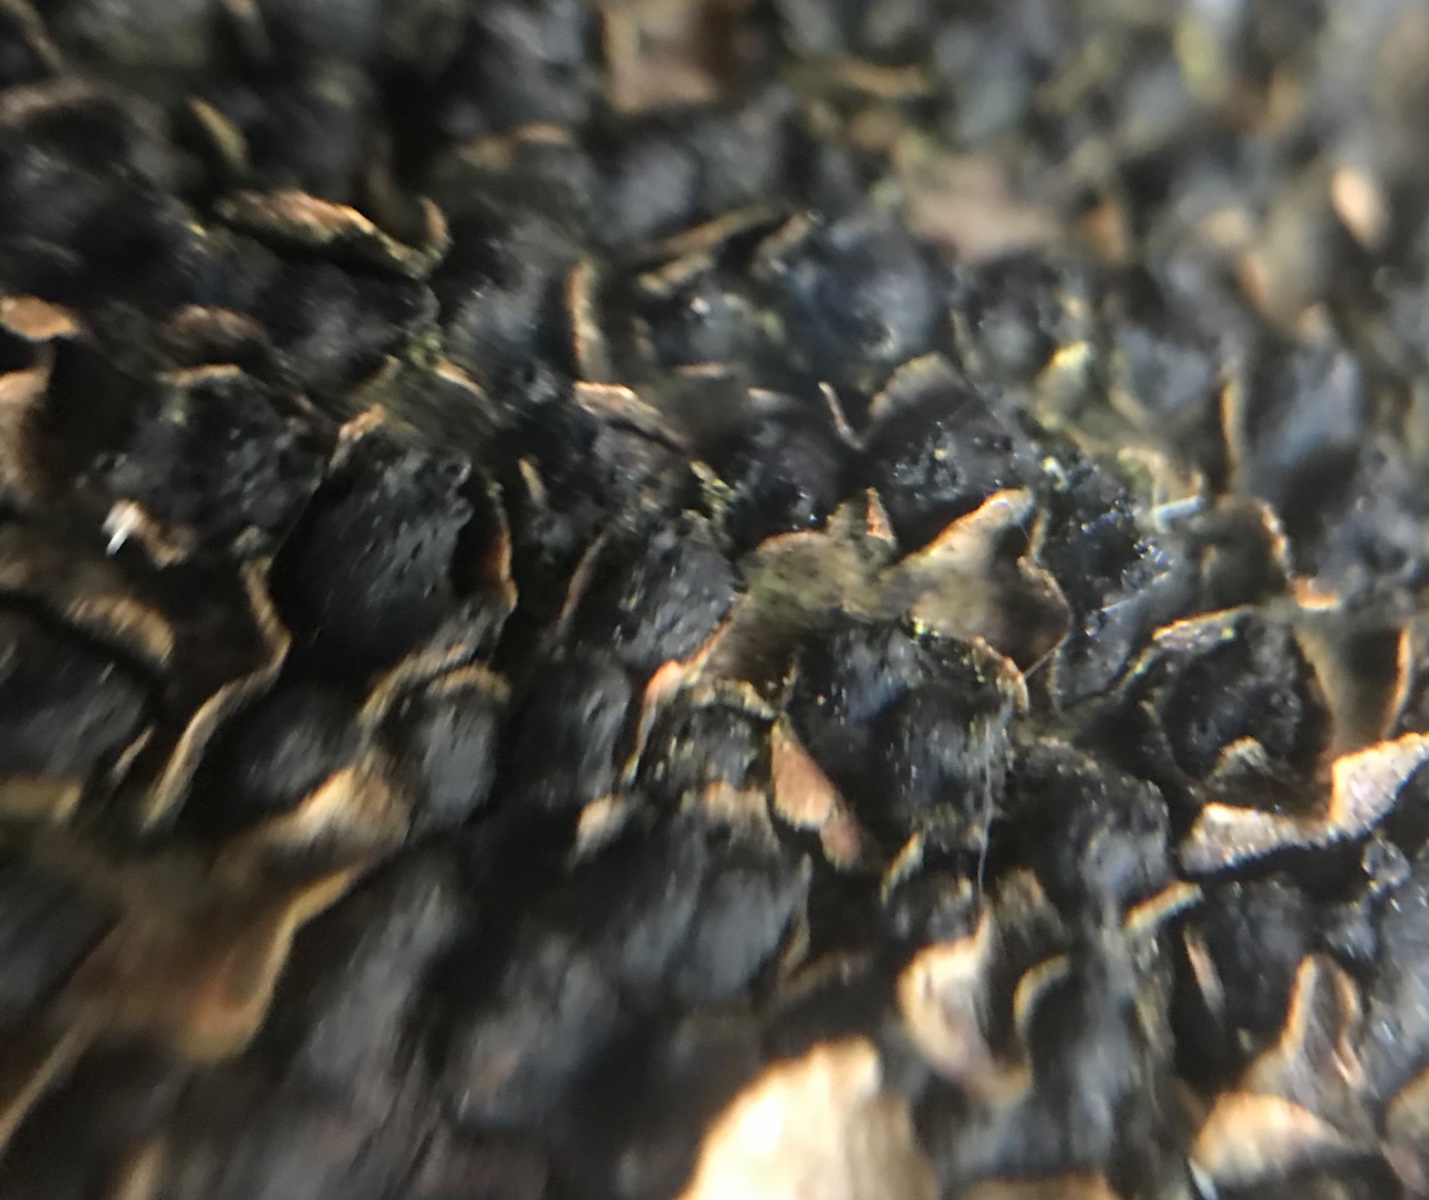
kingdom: Fungi
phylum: Ascomycota
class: Sordariomycetes
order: Xylariales
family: Melogrammataceae
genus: Melogramma
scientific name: Melogramma spiniferum
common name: bøgefod-kulhals
